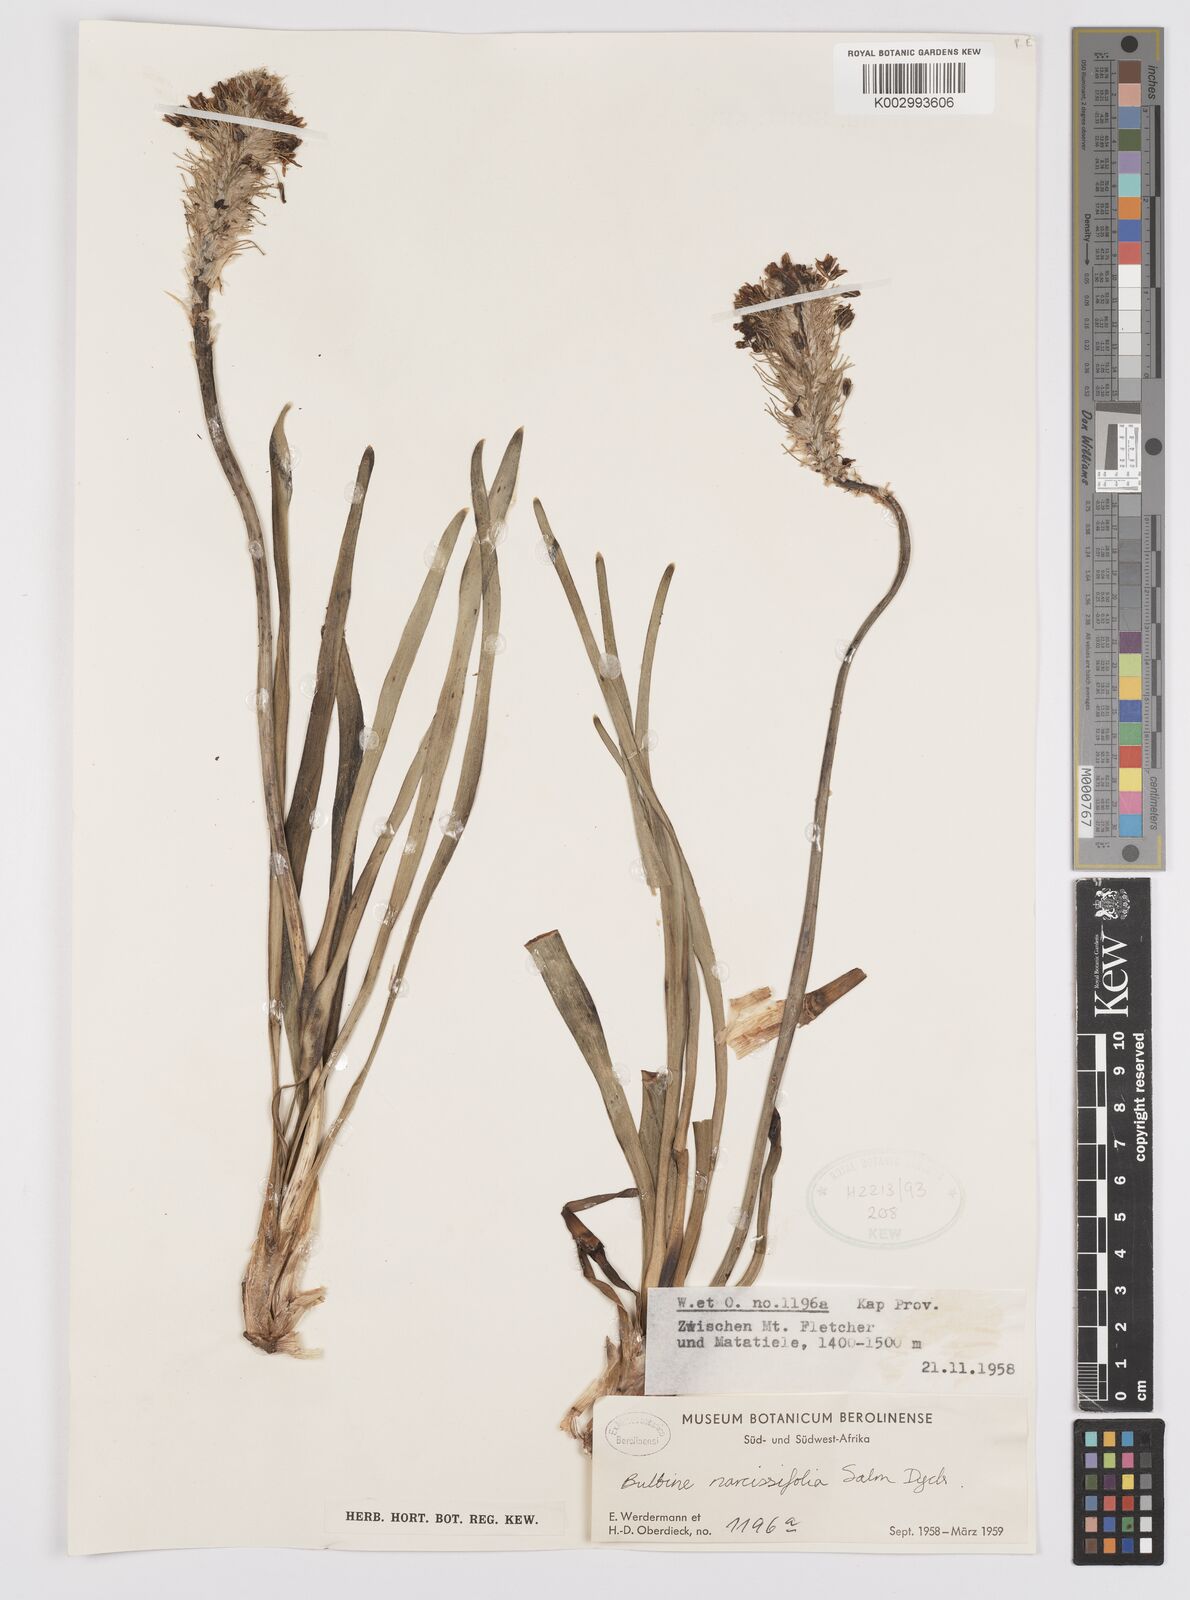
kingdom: Plantae
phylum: Tracheophyta
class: Liliopsida
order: Asparagales
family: Asphodelaceae
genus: Bulbine
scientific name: Bulbine narcissifolia
